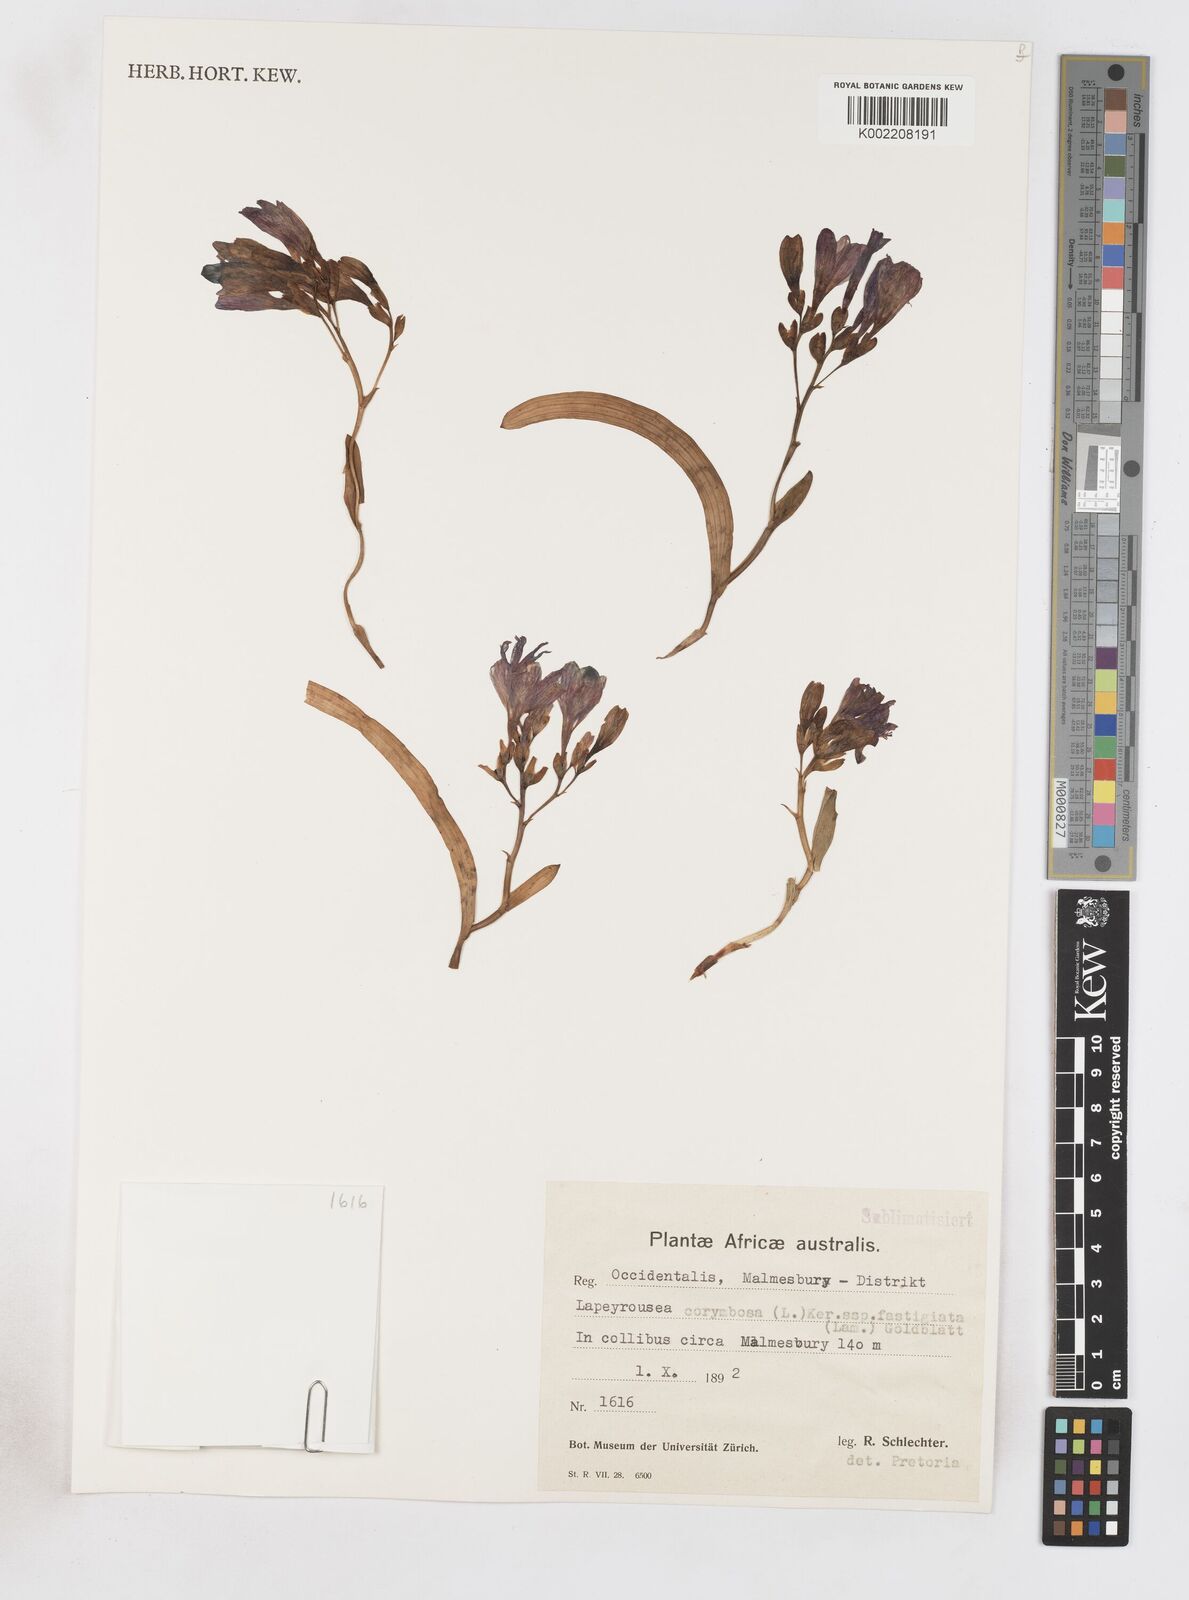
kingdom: Plantae
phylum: Tracheophyta
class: Liliopsida
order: Asparagales
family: Iridaceae
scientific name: Iridaceae
